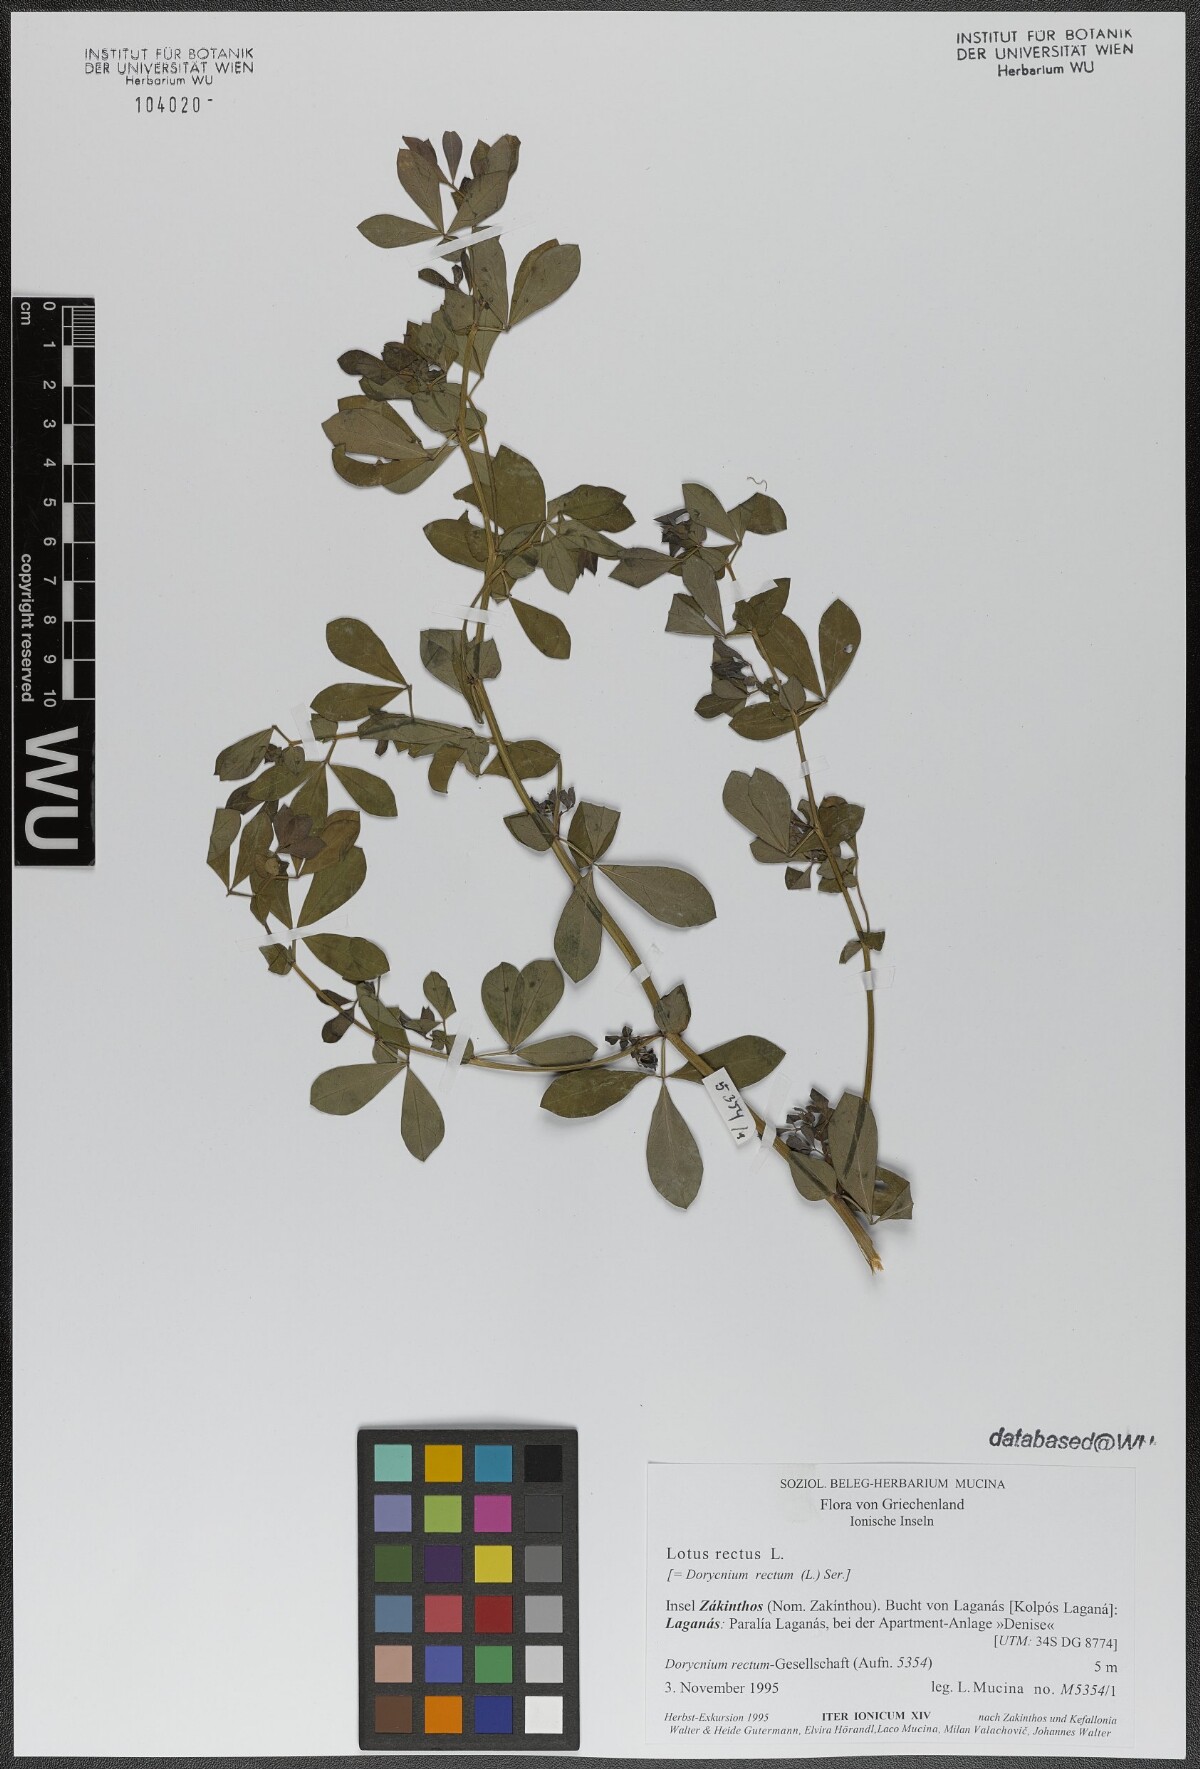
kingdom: Plantae
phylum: Tracheophyta
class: Magnoliopsida
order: Fabales
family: Fabaceae
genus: Lotus
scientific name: Lotus rectus
